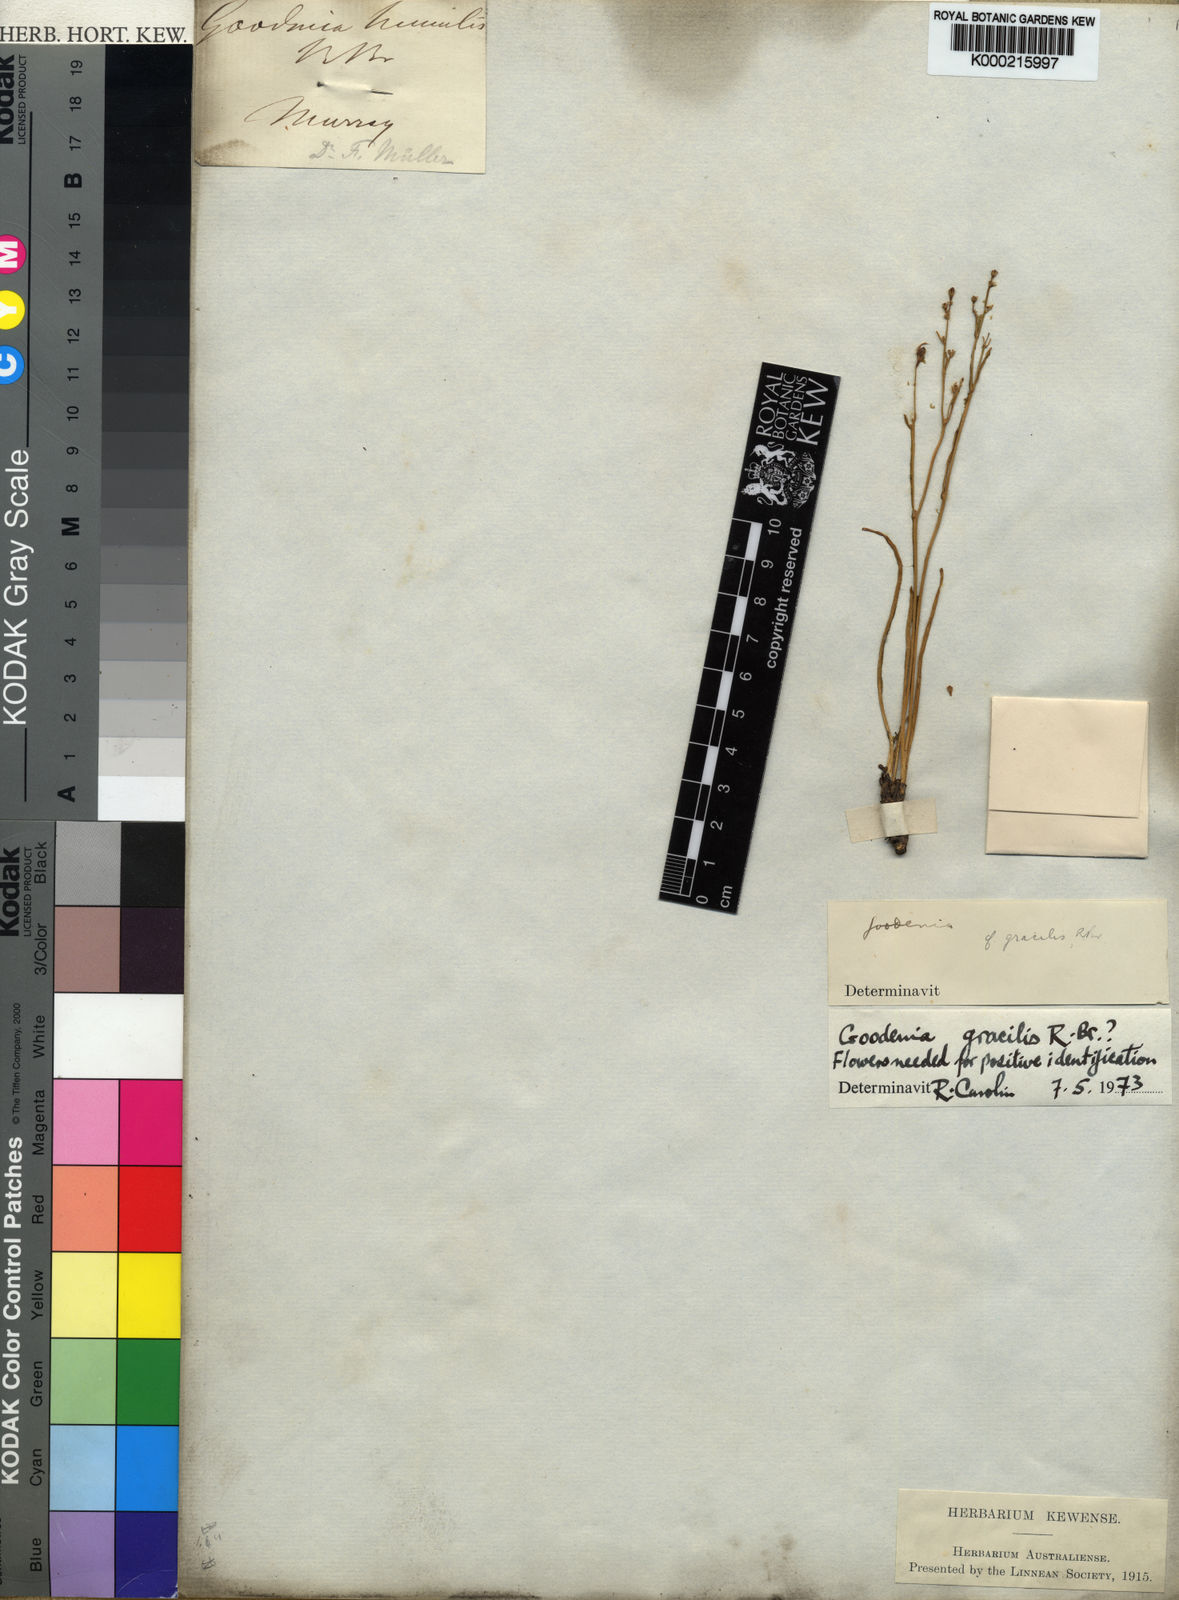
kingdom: Plantae
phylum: Tracheophyta
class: Magnoliopsida
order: Asterales
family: Goodeniaceae
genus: Goodenia
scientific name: Goodenia gracilis
